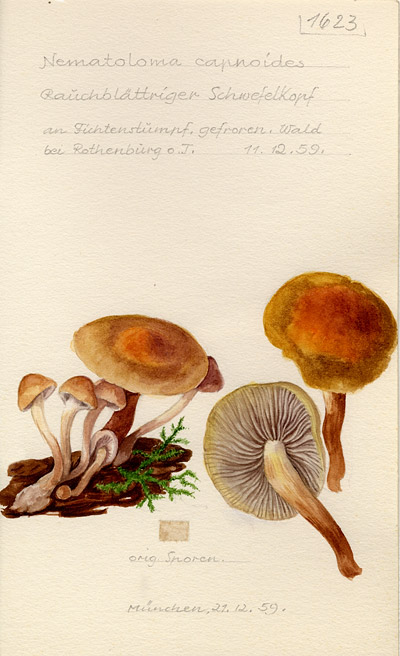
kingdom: Fungi
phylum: Basidiomycota
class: Agaricomycetes
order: Agaricales
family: Strophariaceae
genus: Hypholoma
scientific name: Hypholoma capnoides
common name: Conifer tuft
